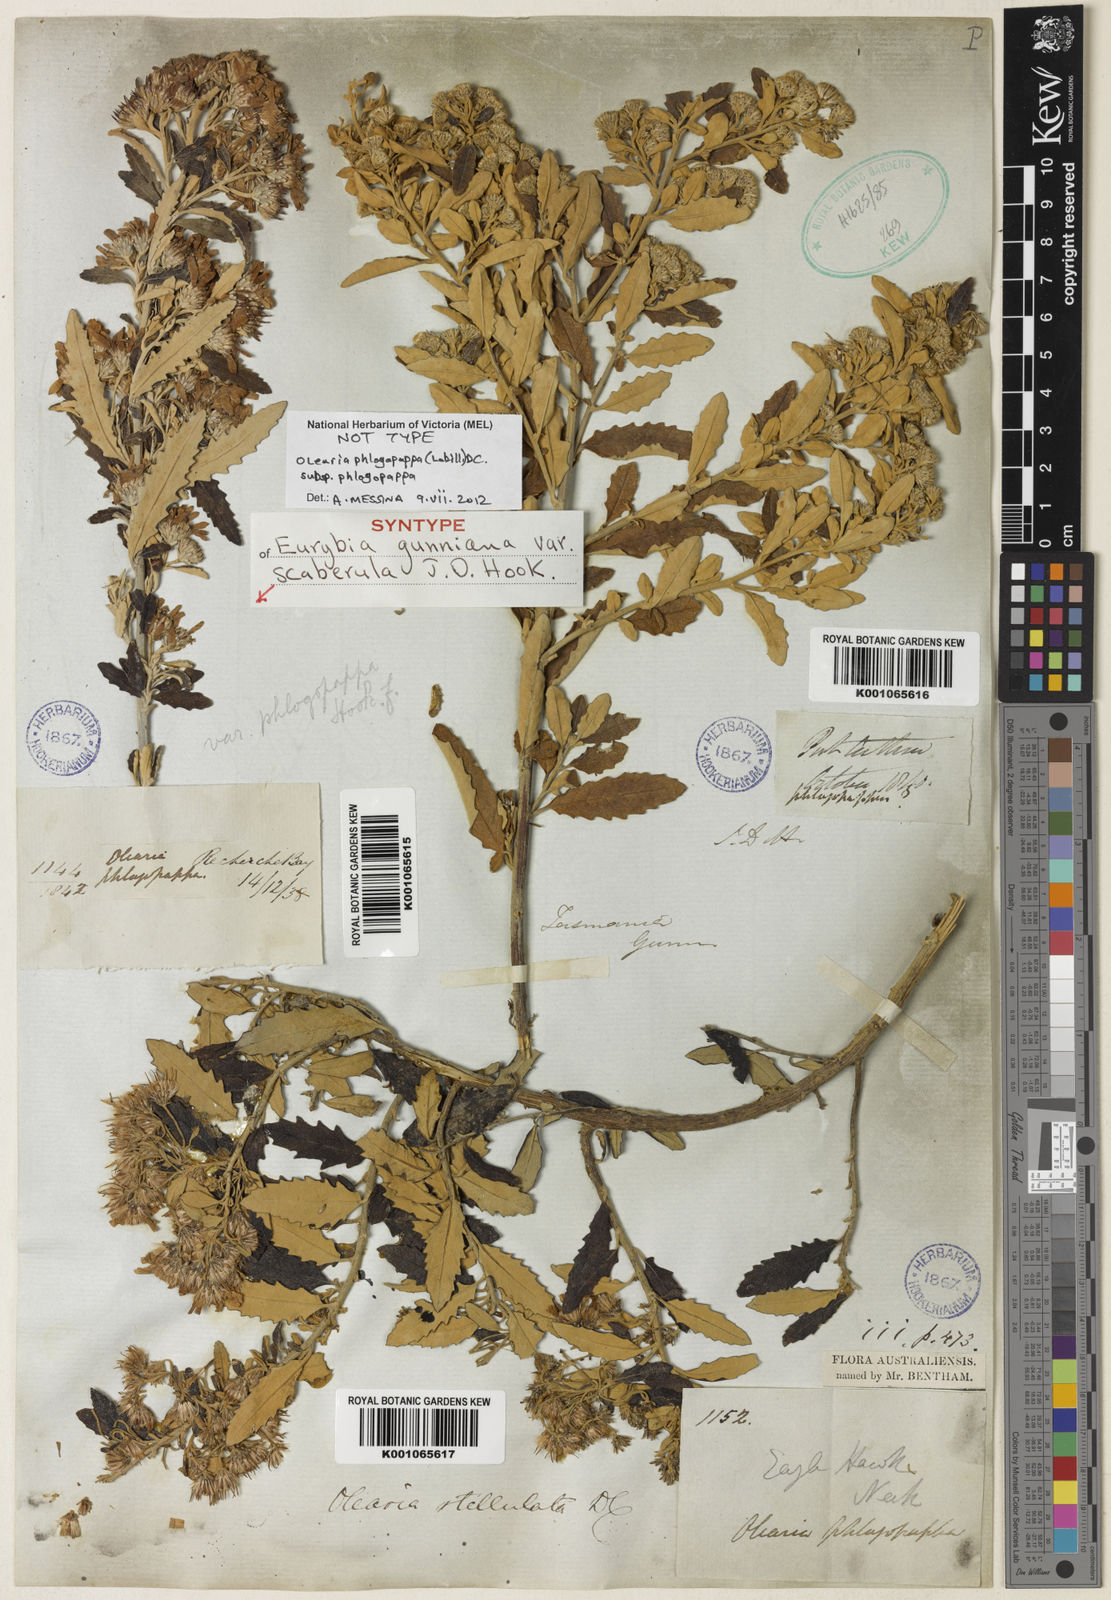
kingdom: Plantae
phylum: Tracheophyta
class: Magnoliopsida
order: Asterales
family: Asteraceae
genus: Olearia
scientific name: Olearia phlogopappa
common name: Alpine daisybush
